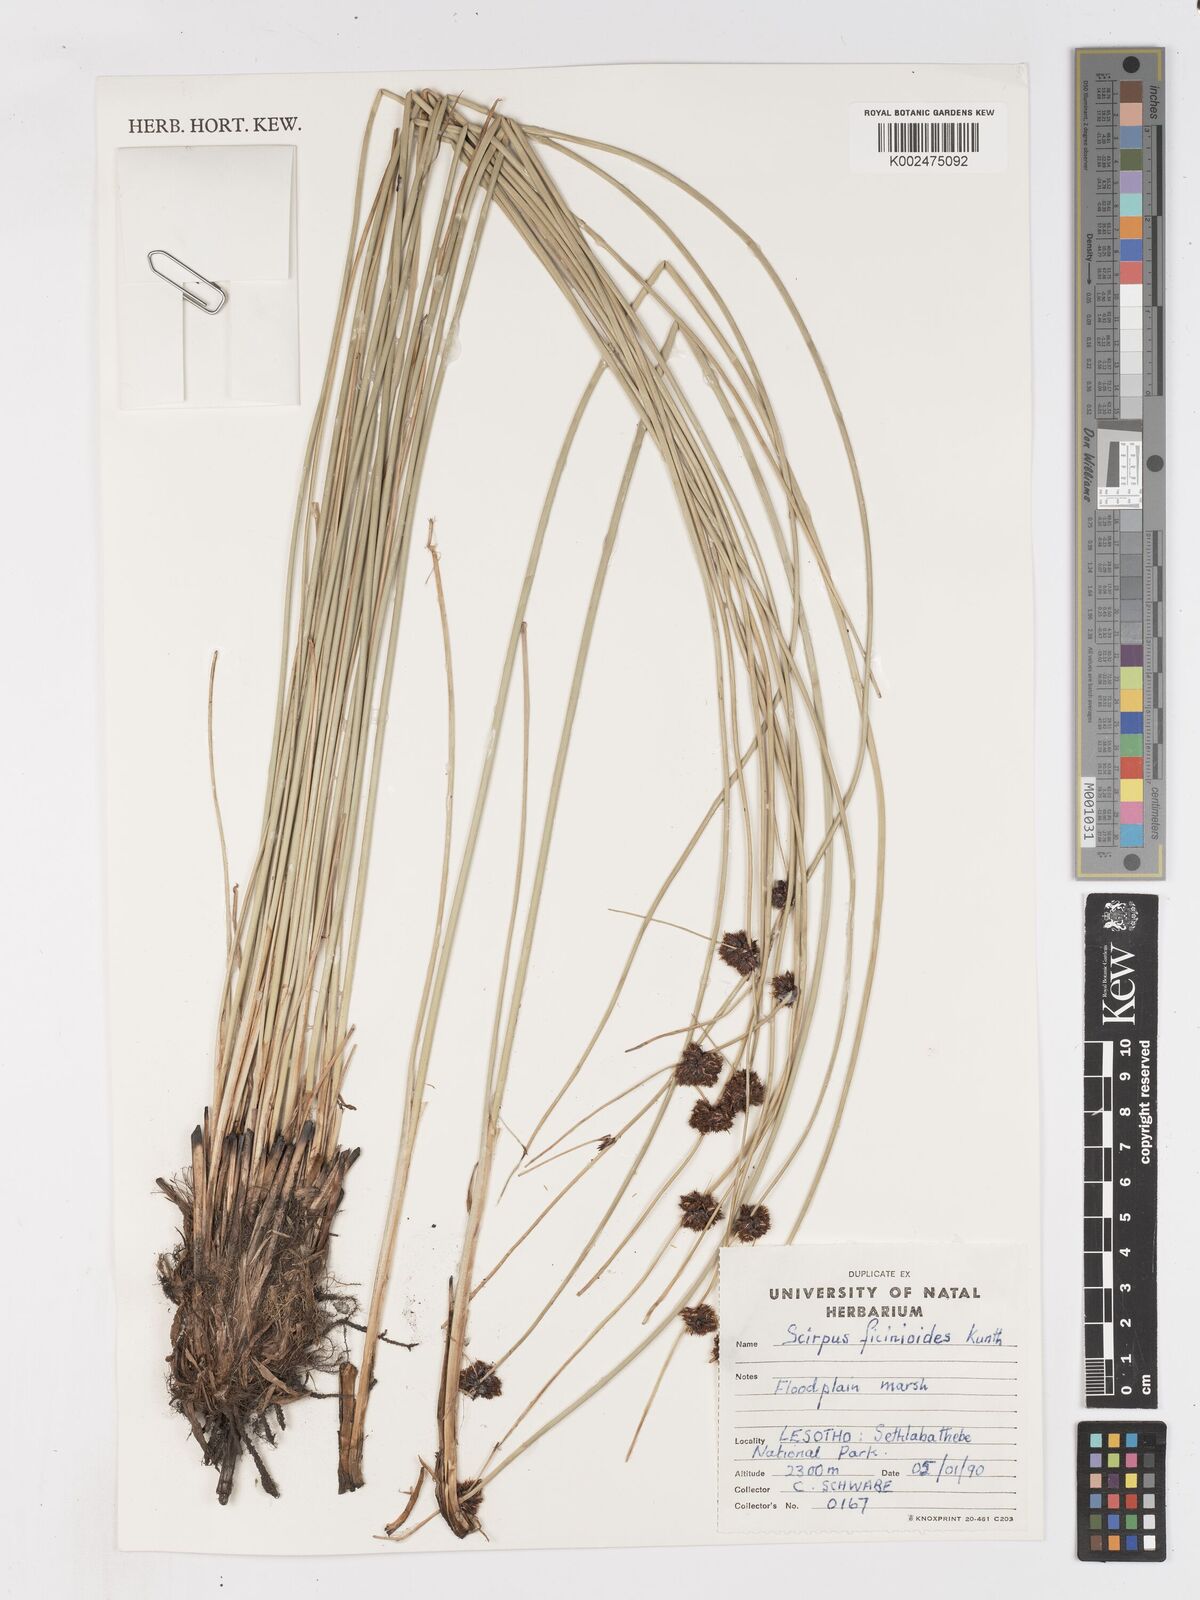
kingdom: Plantae
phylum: Tracheophyta
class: Liliopsida
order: Poales
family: Cyperaceae
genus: Ficinia
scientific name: Ficinia
